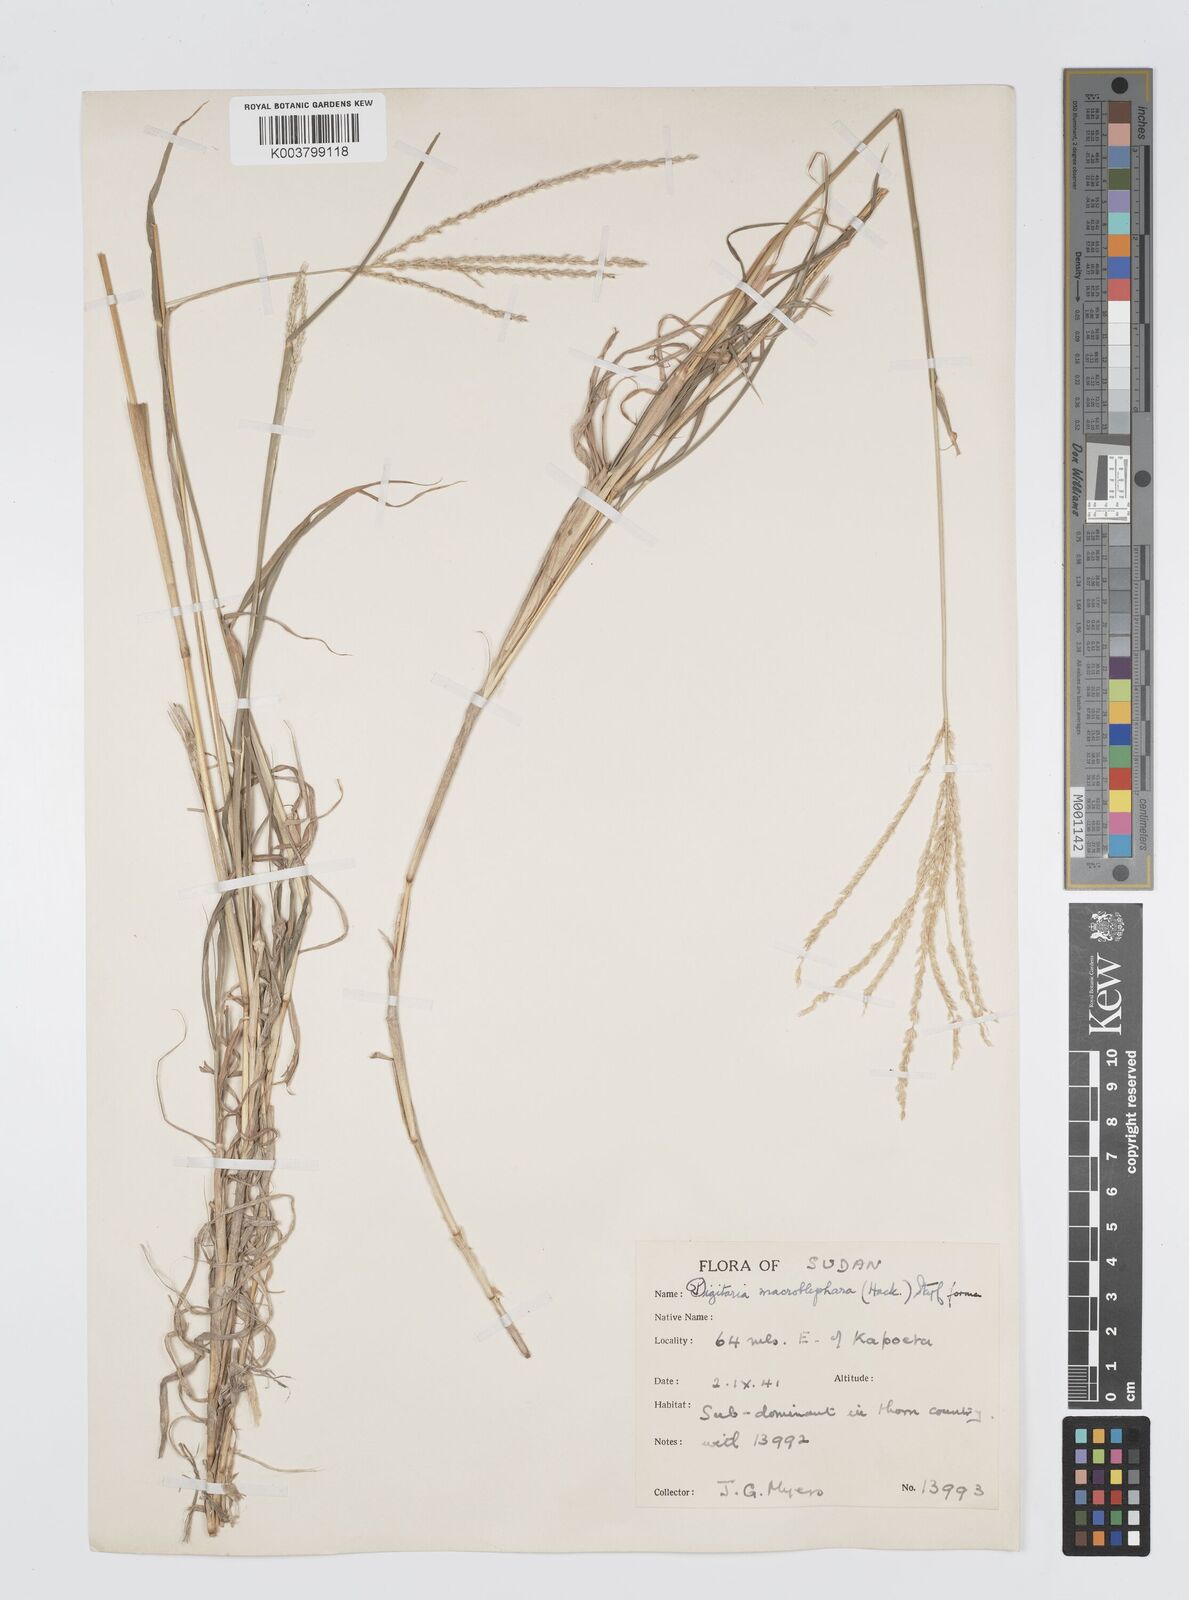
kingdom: Plantae
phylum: Tracheophyta
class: Liliopsida
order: Poales
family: Poaceae
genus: Digitaria
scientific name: Digitaria macroblephara
